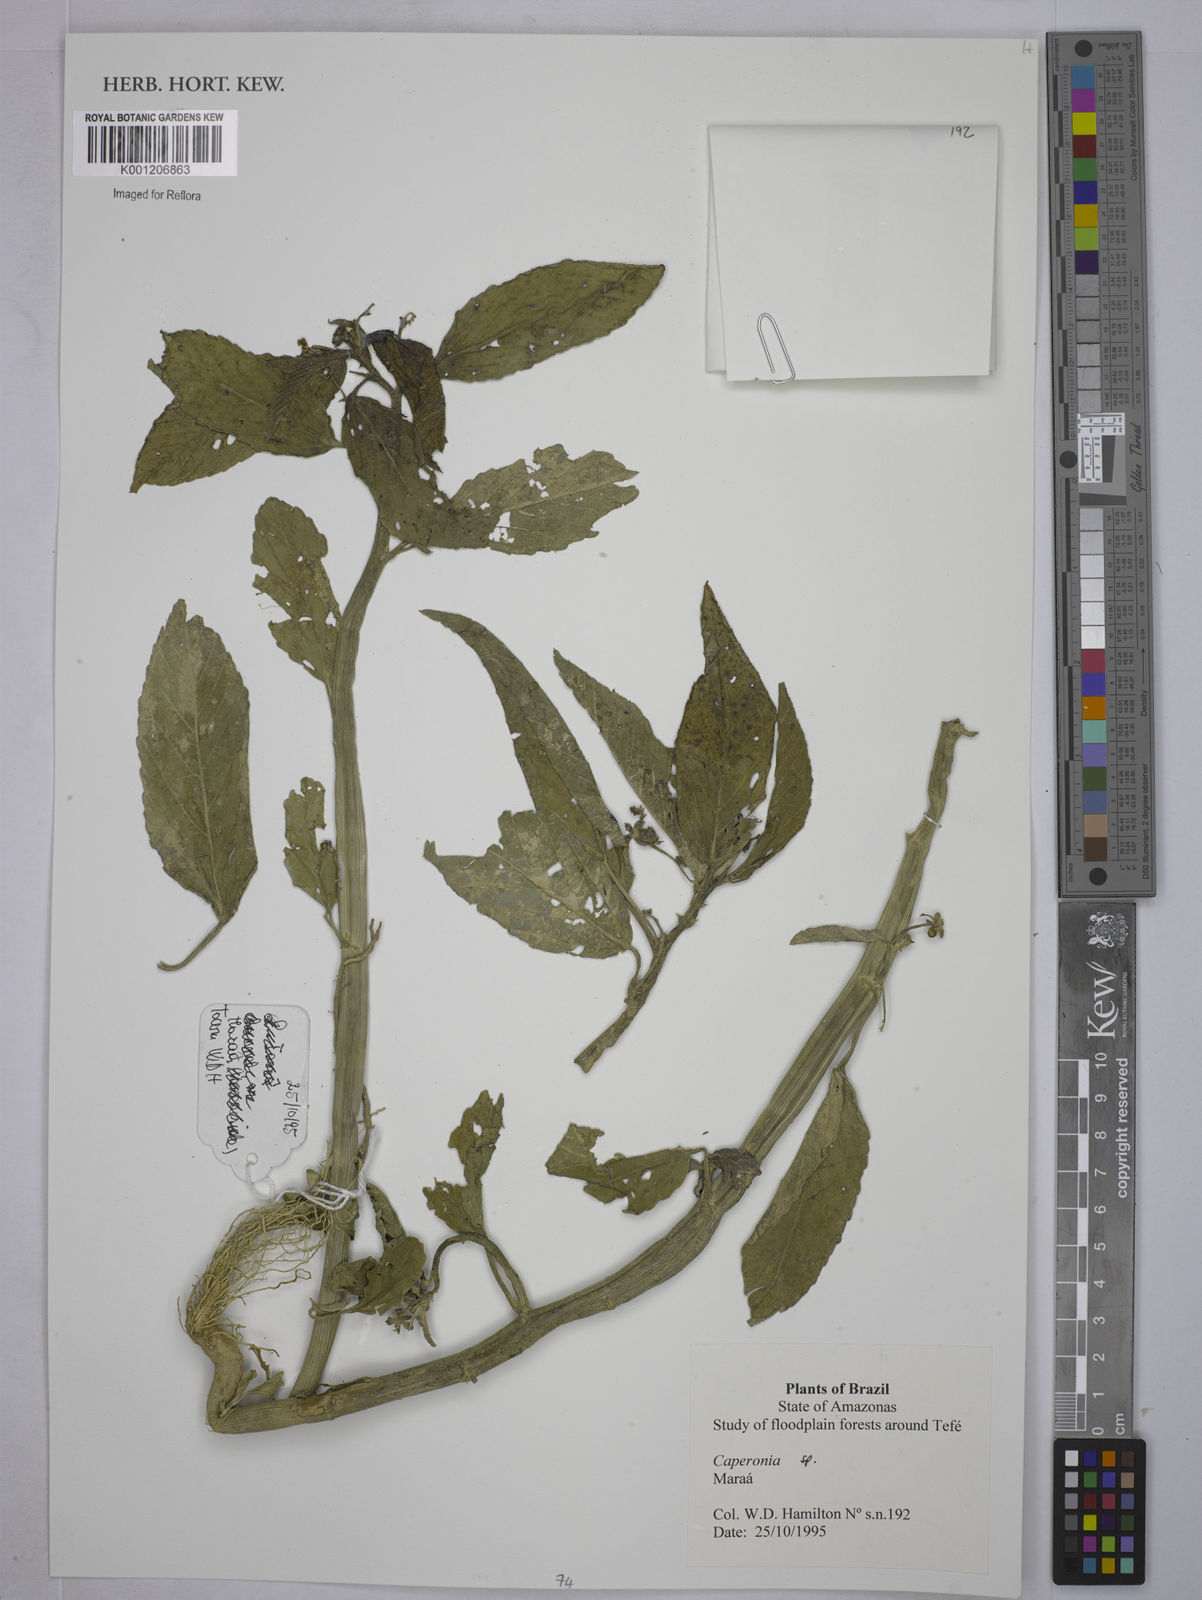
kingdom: Plantae
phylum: Tracheophyta
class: Magnoliopsida
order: Malpighiales
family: Euphorbiaceae
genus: Caperonia
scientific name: Caperonia
